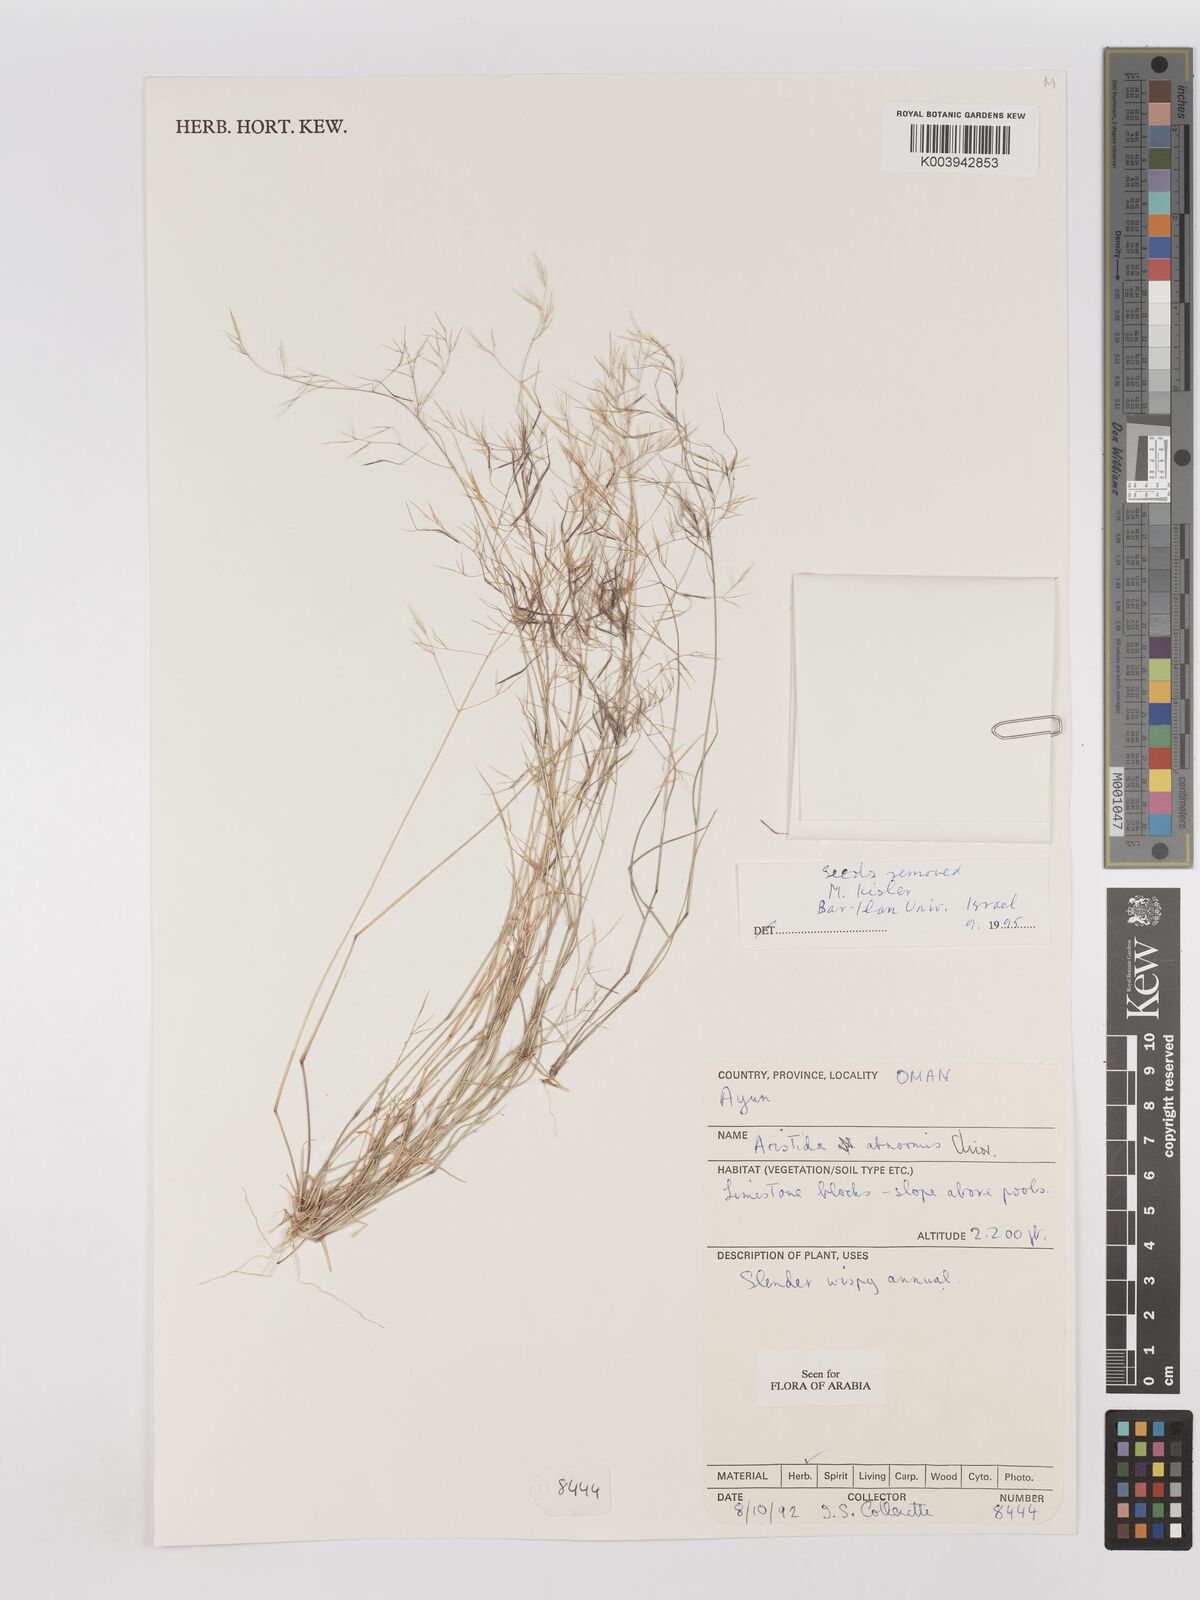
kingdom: Plantae
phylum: Tracheophyta
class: Liliopsida
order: Poales
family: Poaceae
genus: Aristida
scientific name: Aristida abnormis
